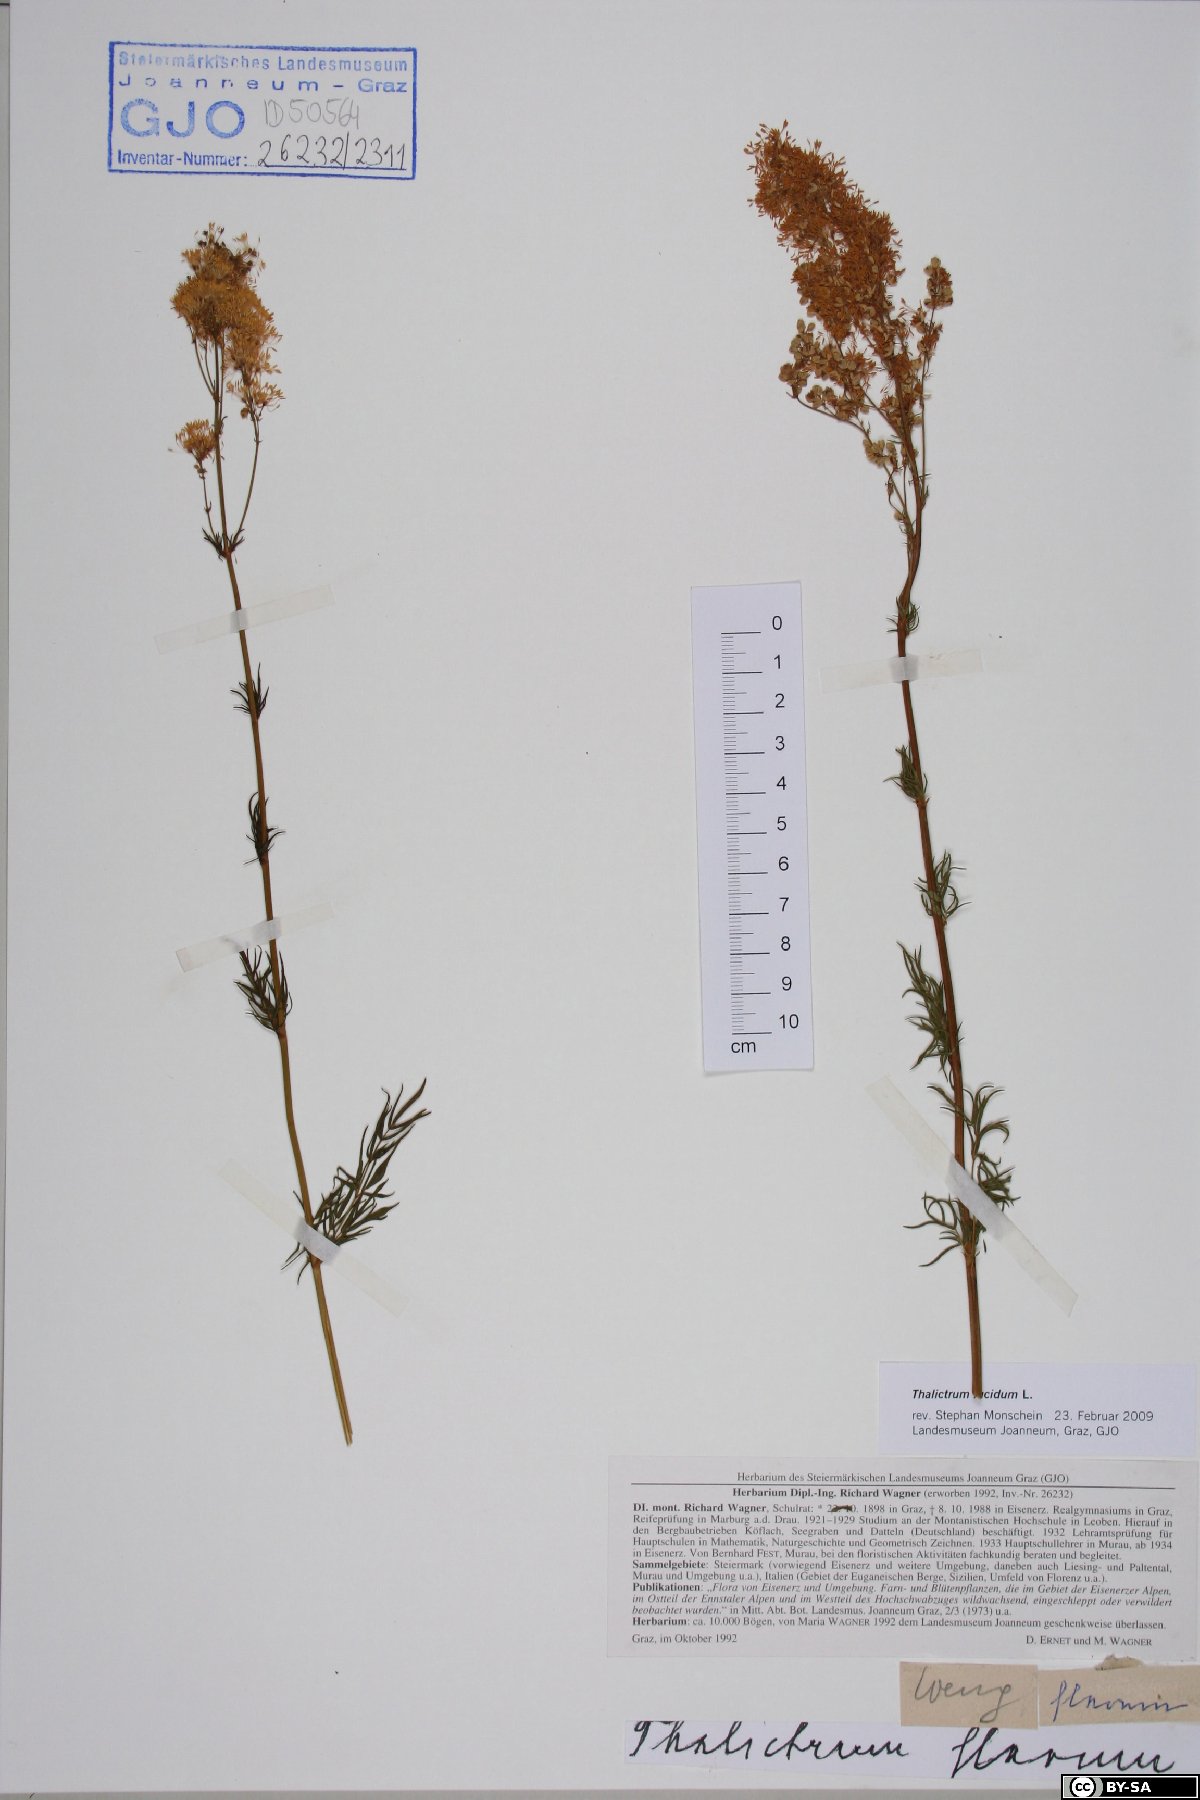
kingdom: Plantae
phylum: Tracheophyta
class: Magnoliopsida
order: Ranunculales
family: Ranunculaceae
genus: Thalictrum
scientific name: Thalictrum lucidum
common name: Shining meadow-rue
